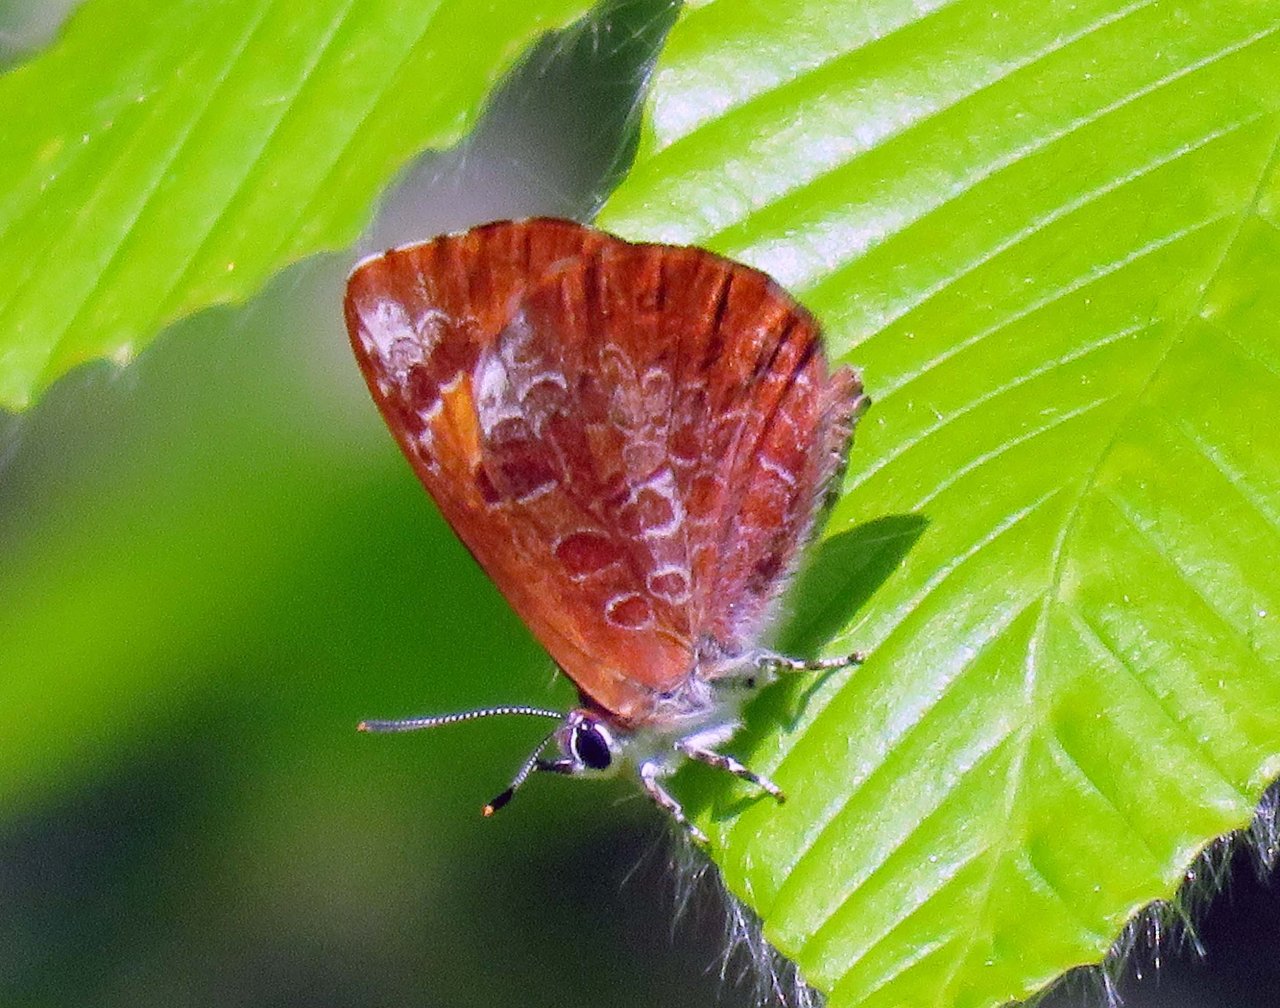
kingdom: Animalia
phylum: Arthropoda
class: Insecta
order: Lepidoptera
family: Lycaenidae
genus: Feniseca
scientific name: Feniseca tarquinius
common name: Harvester
